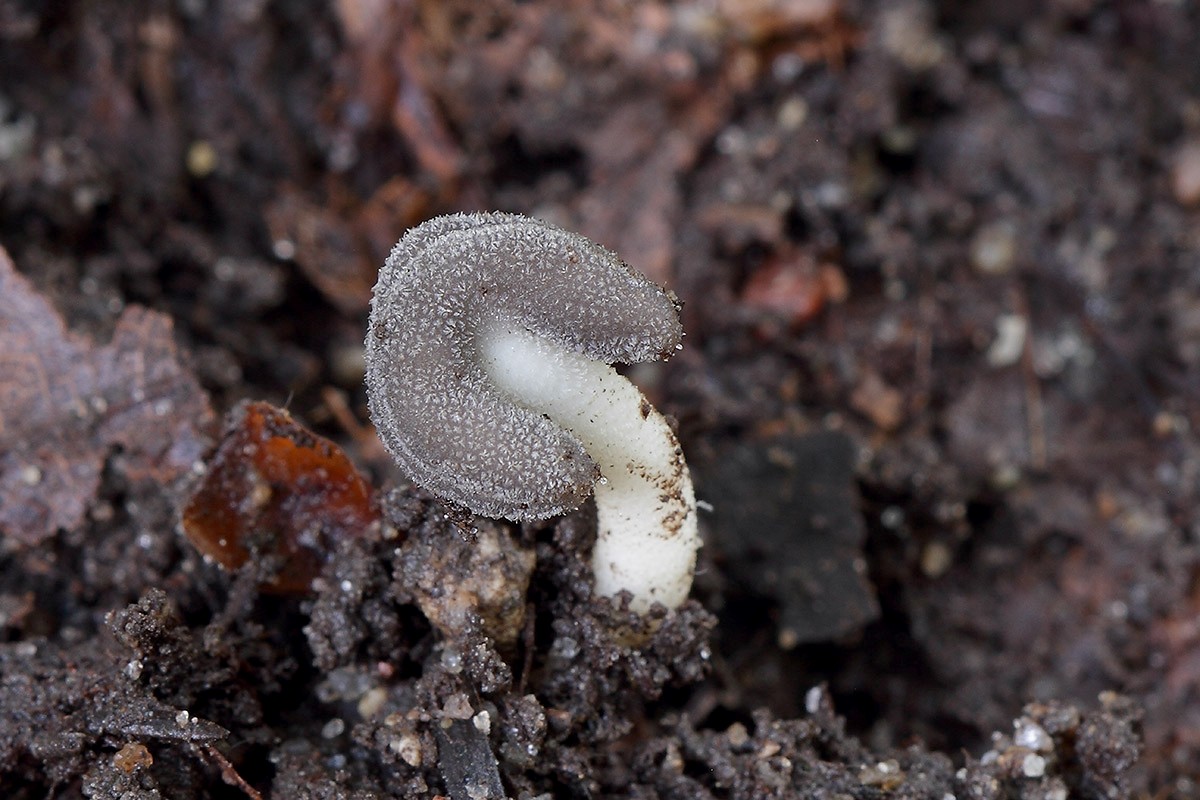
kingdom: Fungi
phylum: Ascomycota
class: Pezizomycetes
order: Pezizales
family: Helvellaceae
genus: Helvella
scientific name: Helvella sublicia
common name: saddel-foldhat
